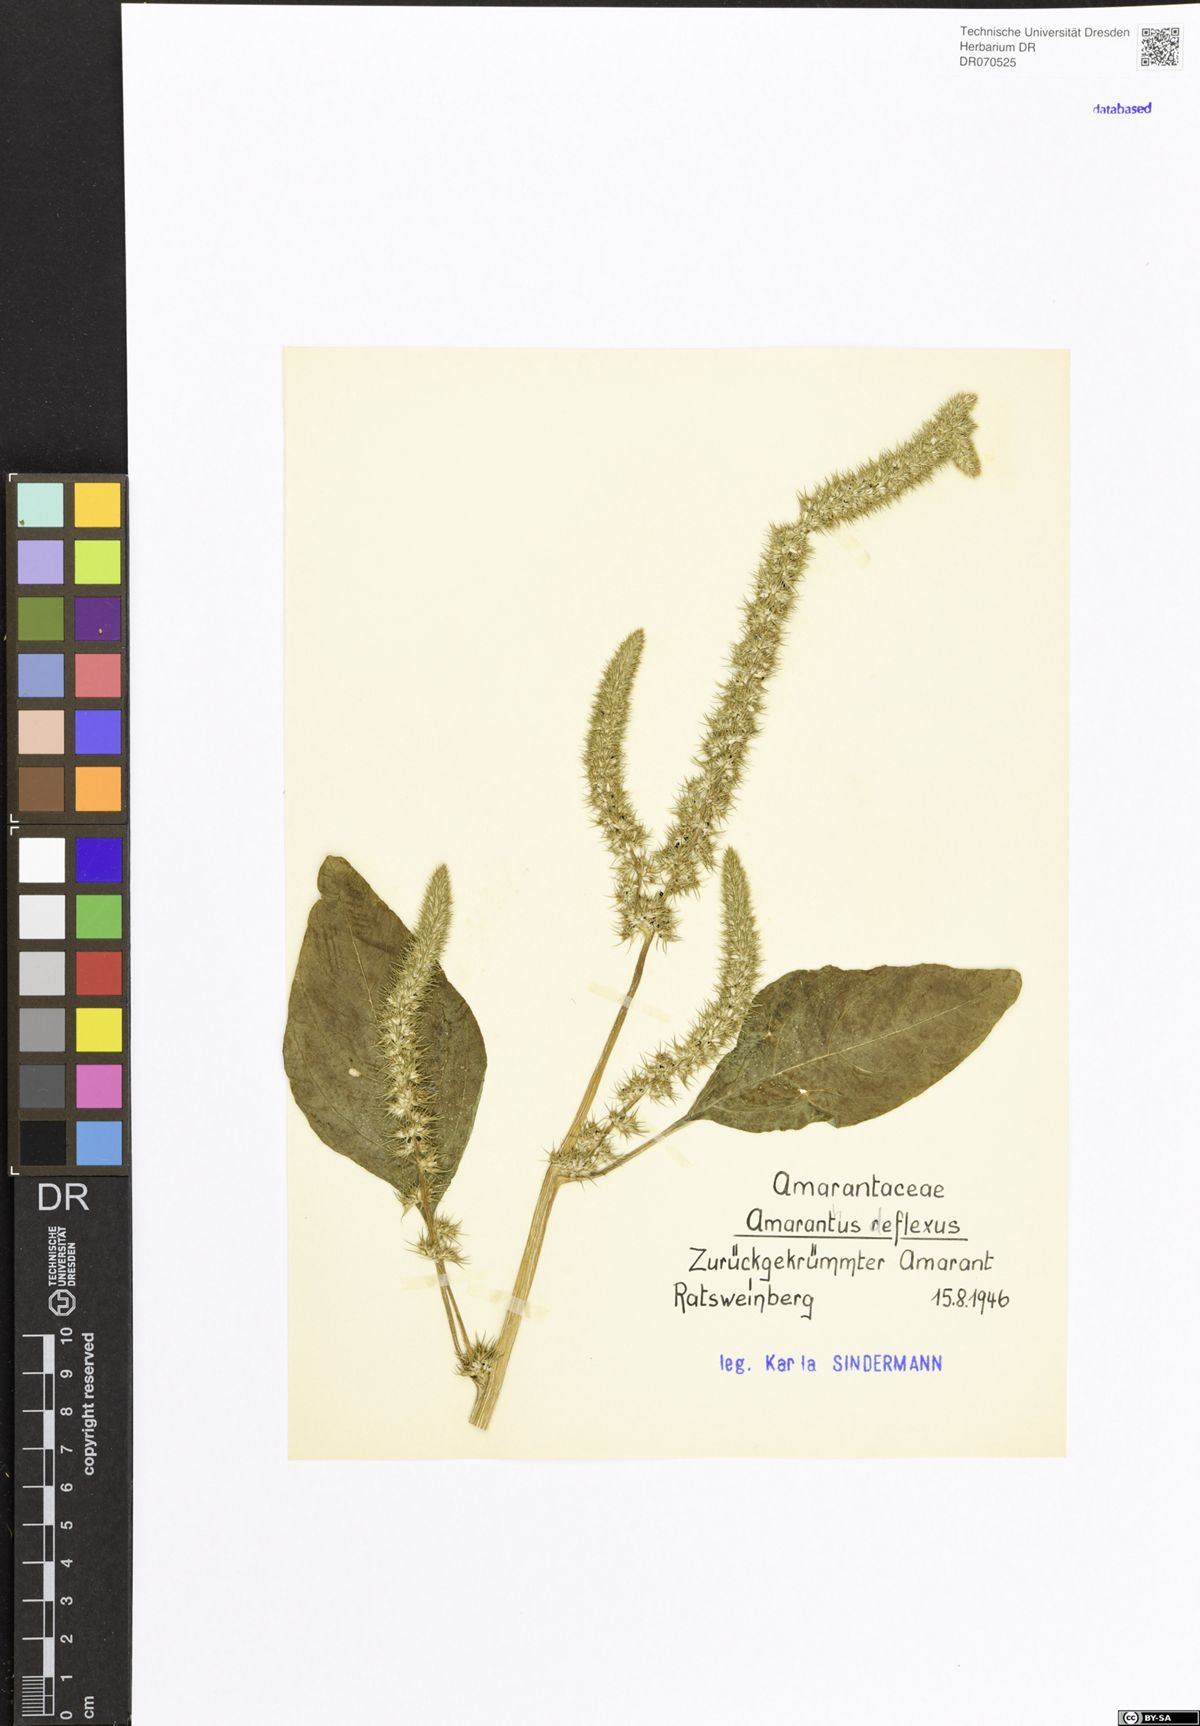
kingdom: Plantae
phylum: Tracheophyta
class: Magnoliopsida
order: Caryophyllales
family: Amaranthaceae
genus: Amaranthus
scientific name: Amaranthus deflexus
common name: Perennial pigweed
